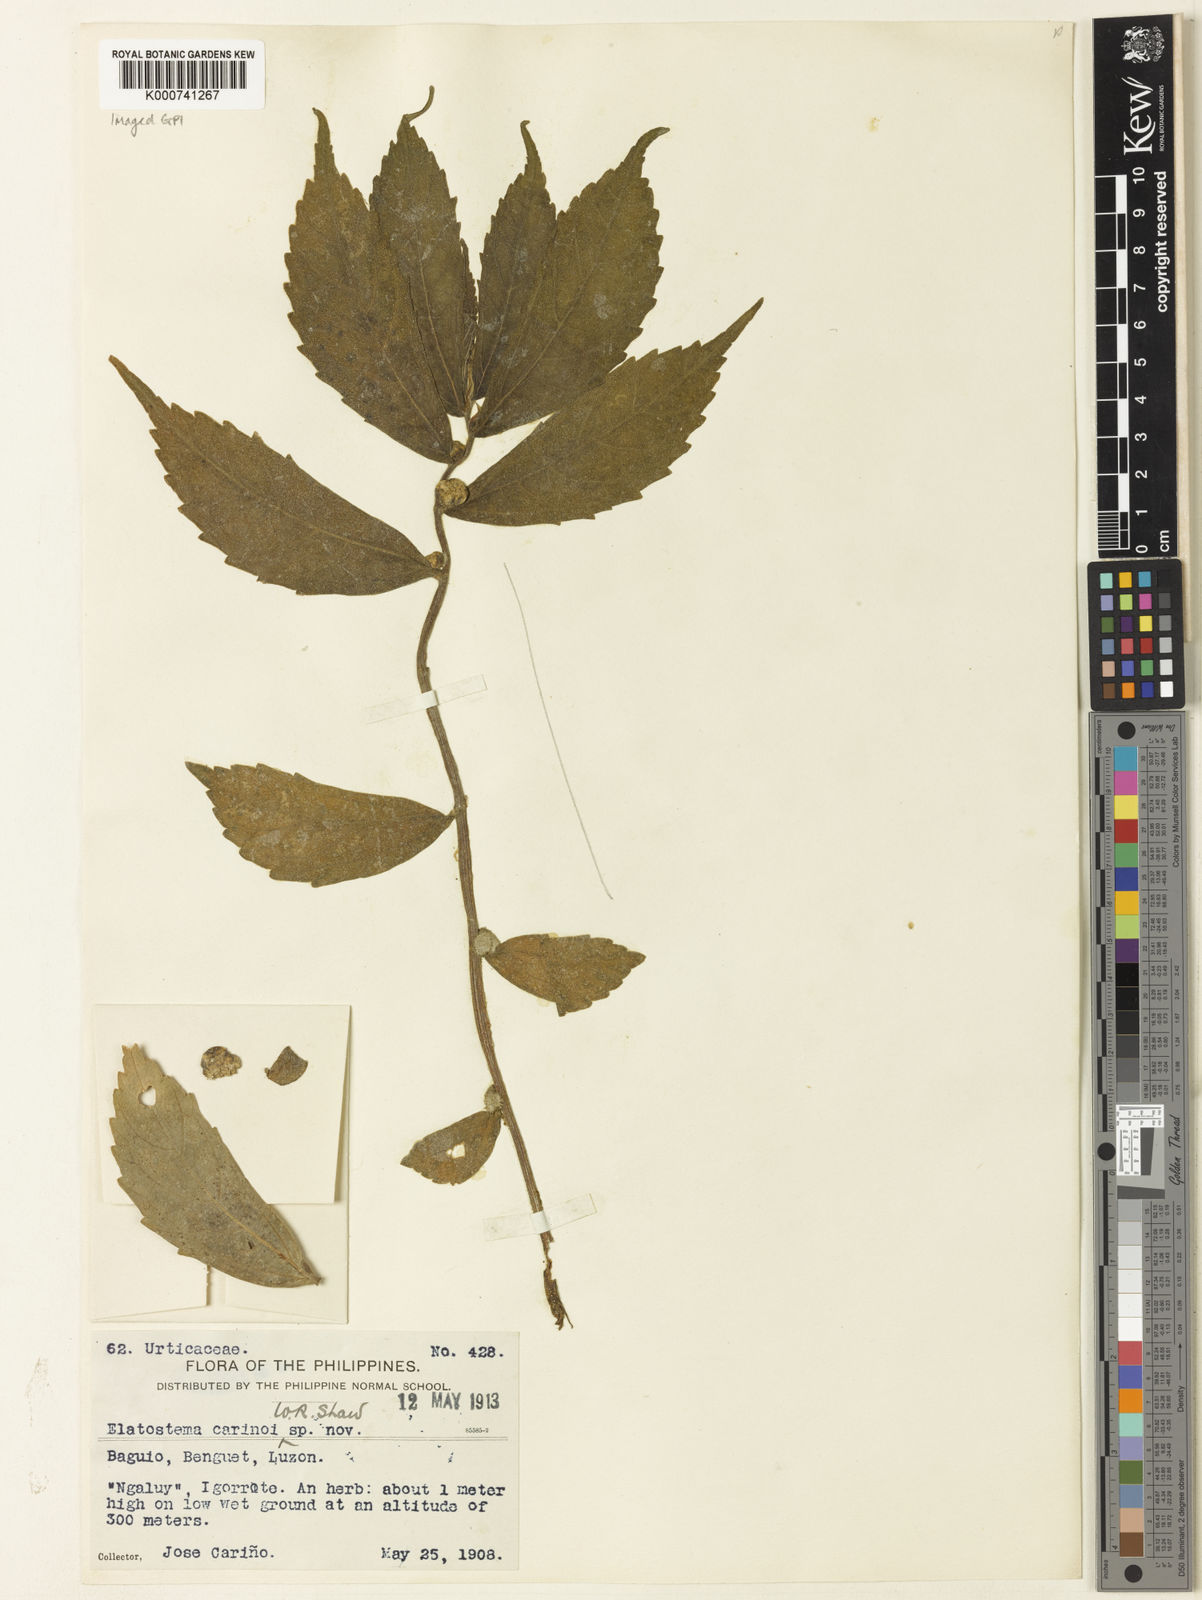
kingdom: Plantae
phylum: Tracheophyta
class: Magnoliopsida
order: Rosales
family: Urticaceae
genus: Elatostema
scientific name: Elatostema banahaense
